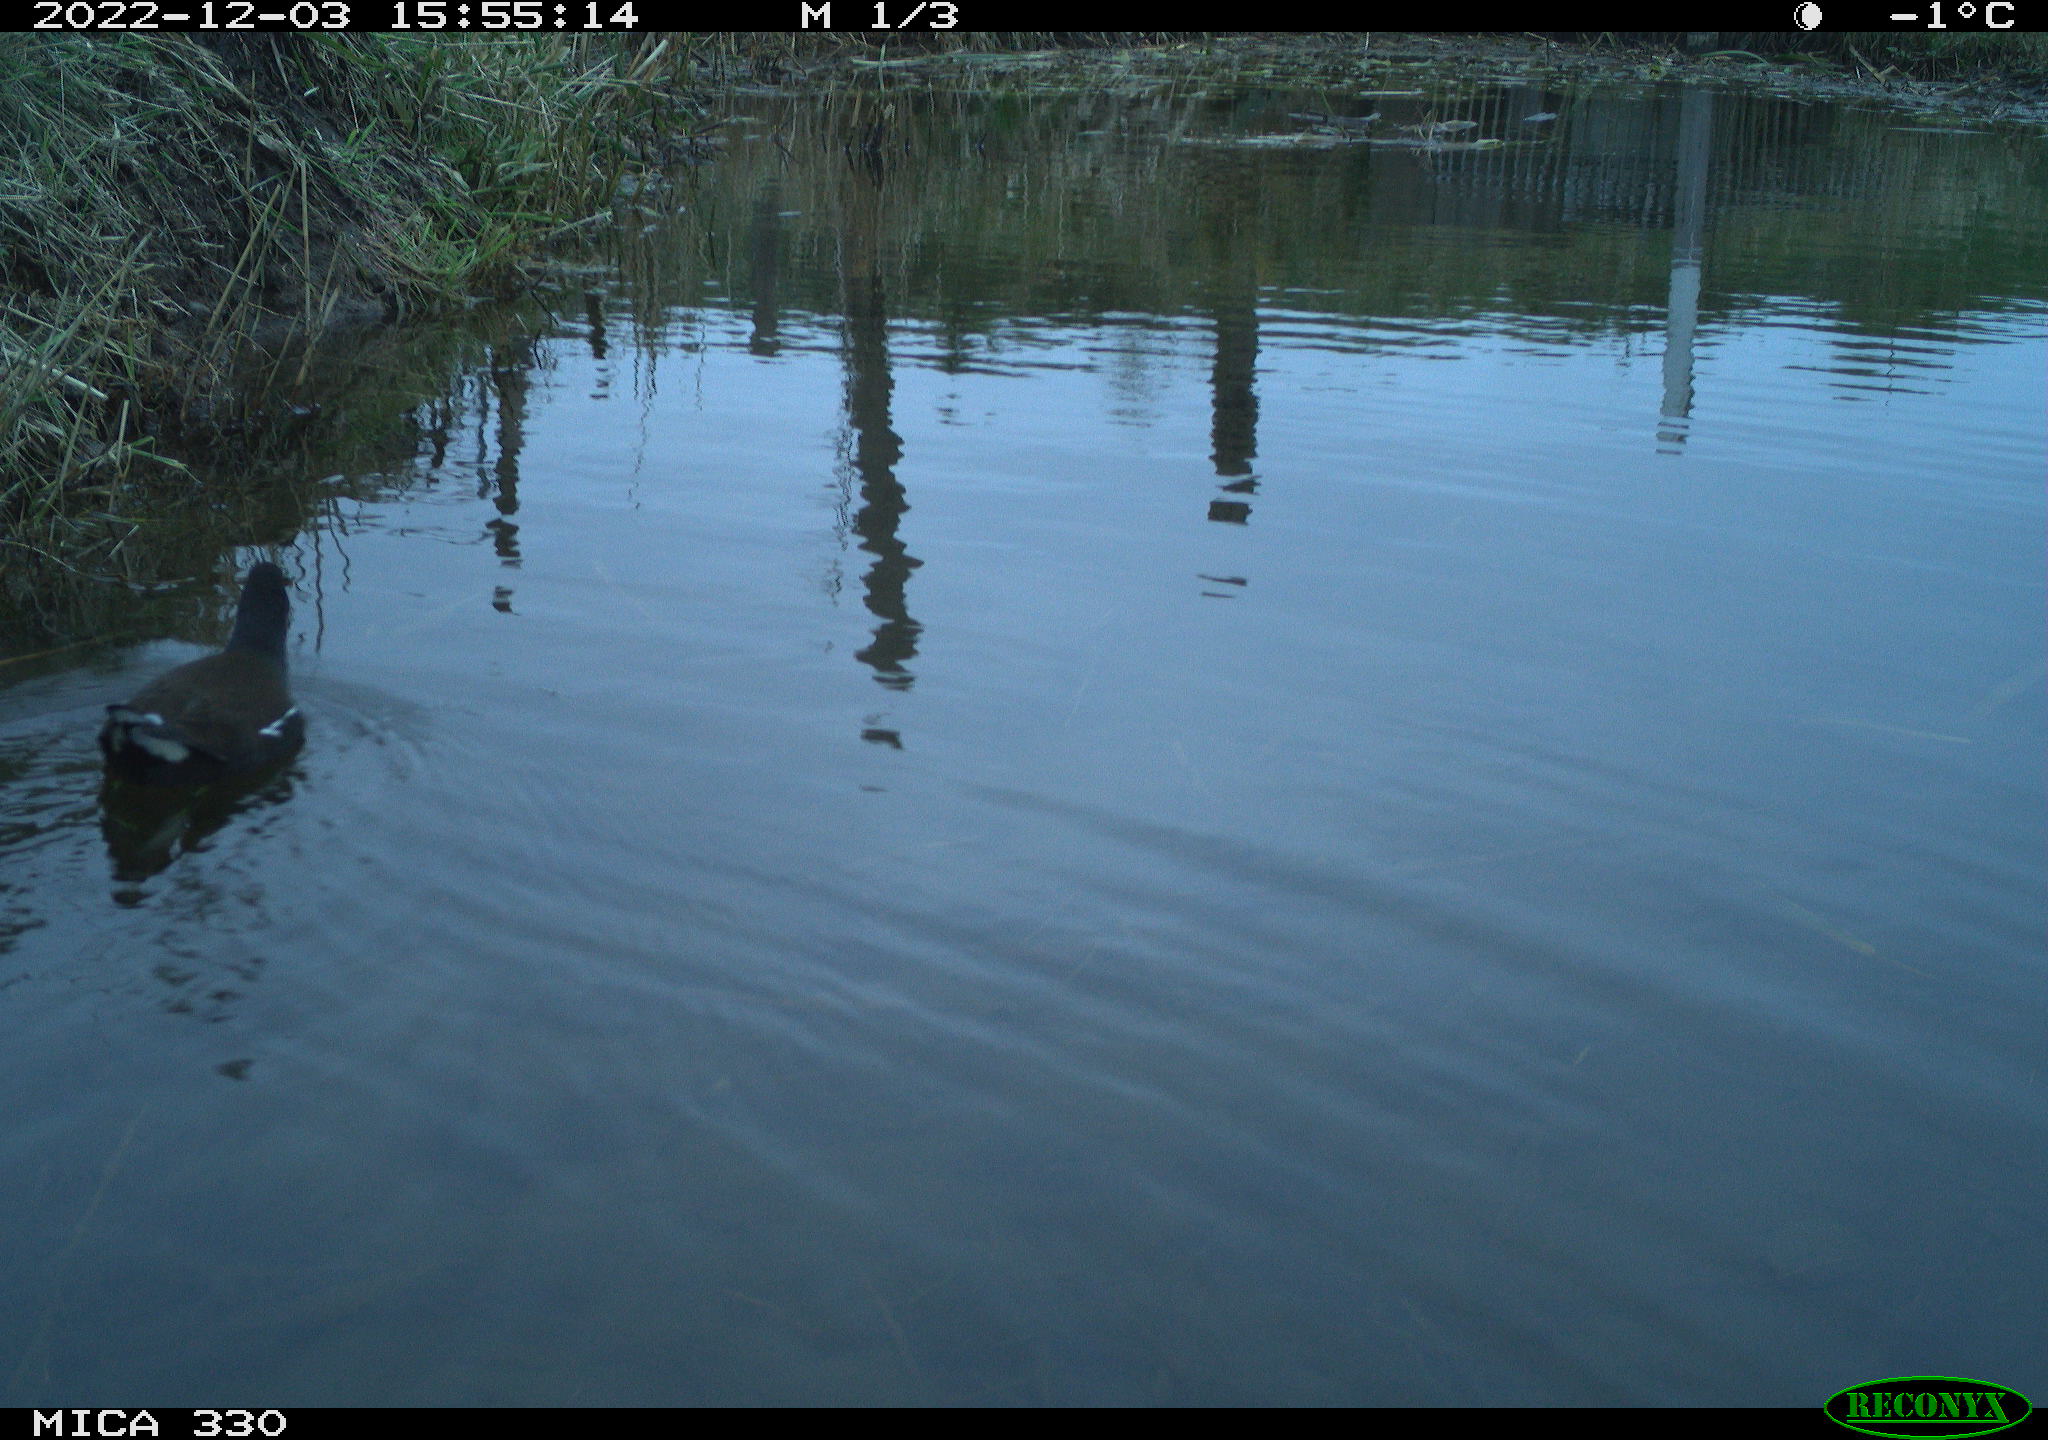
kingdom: Animalia
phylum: Chordata
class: Aves
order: Gruiformes
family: Rallidae
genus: Gallinula
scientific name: Gallinula chloropus
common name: Common moorhen
